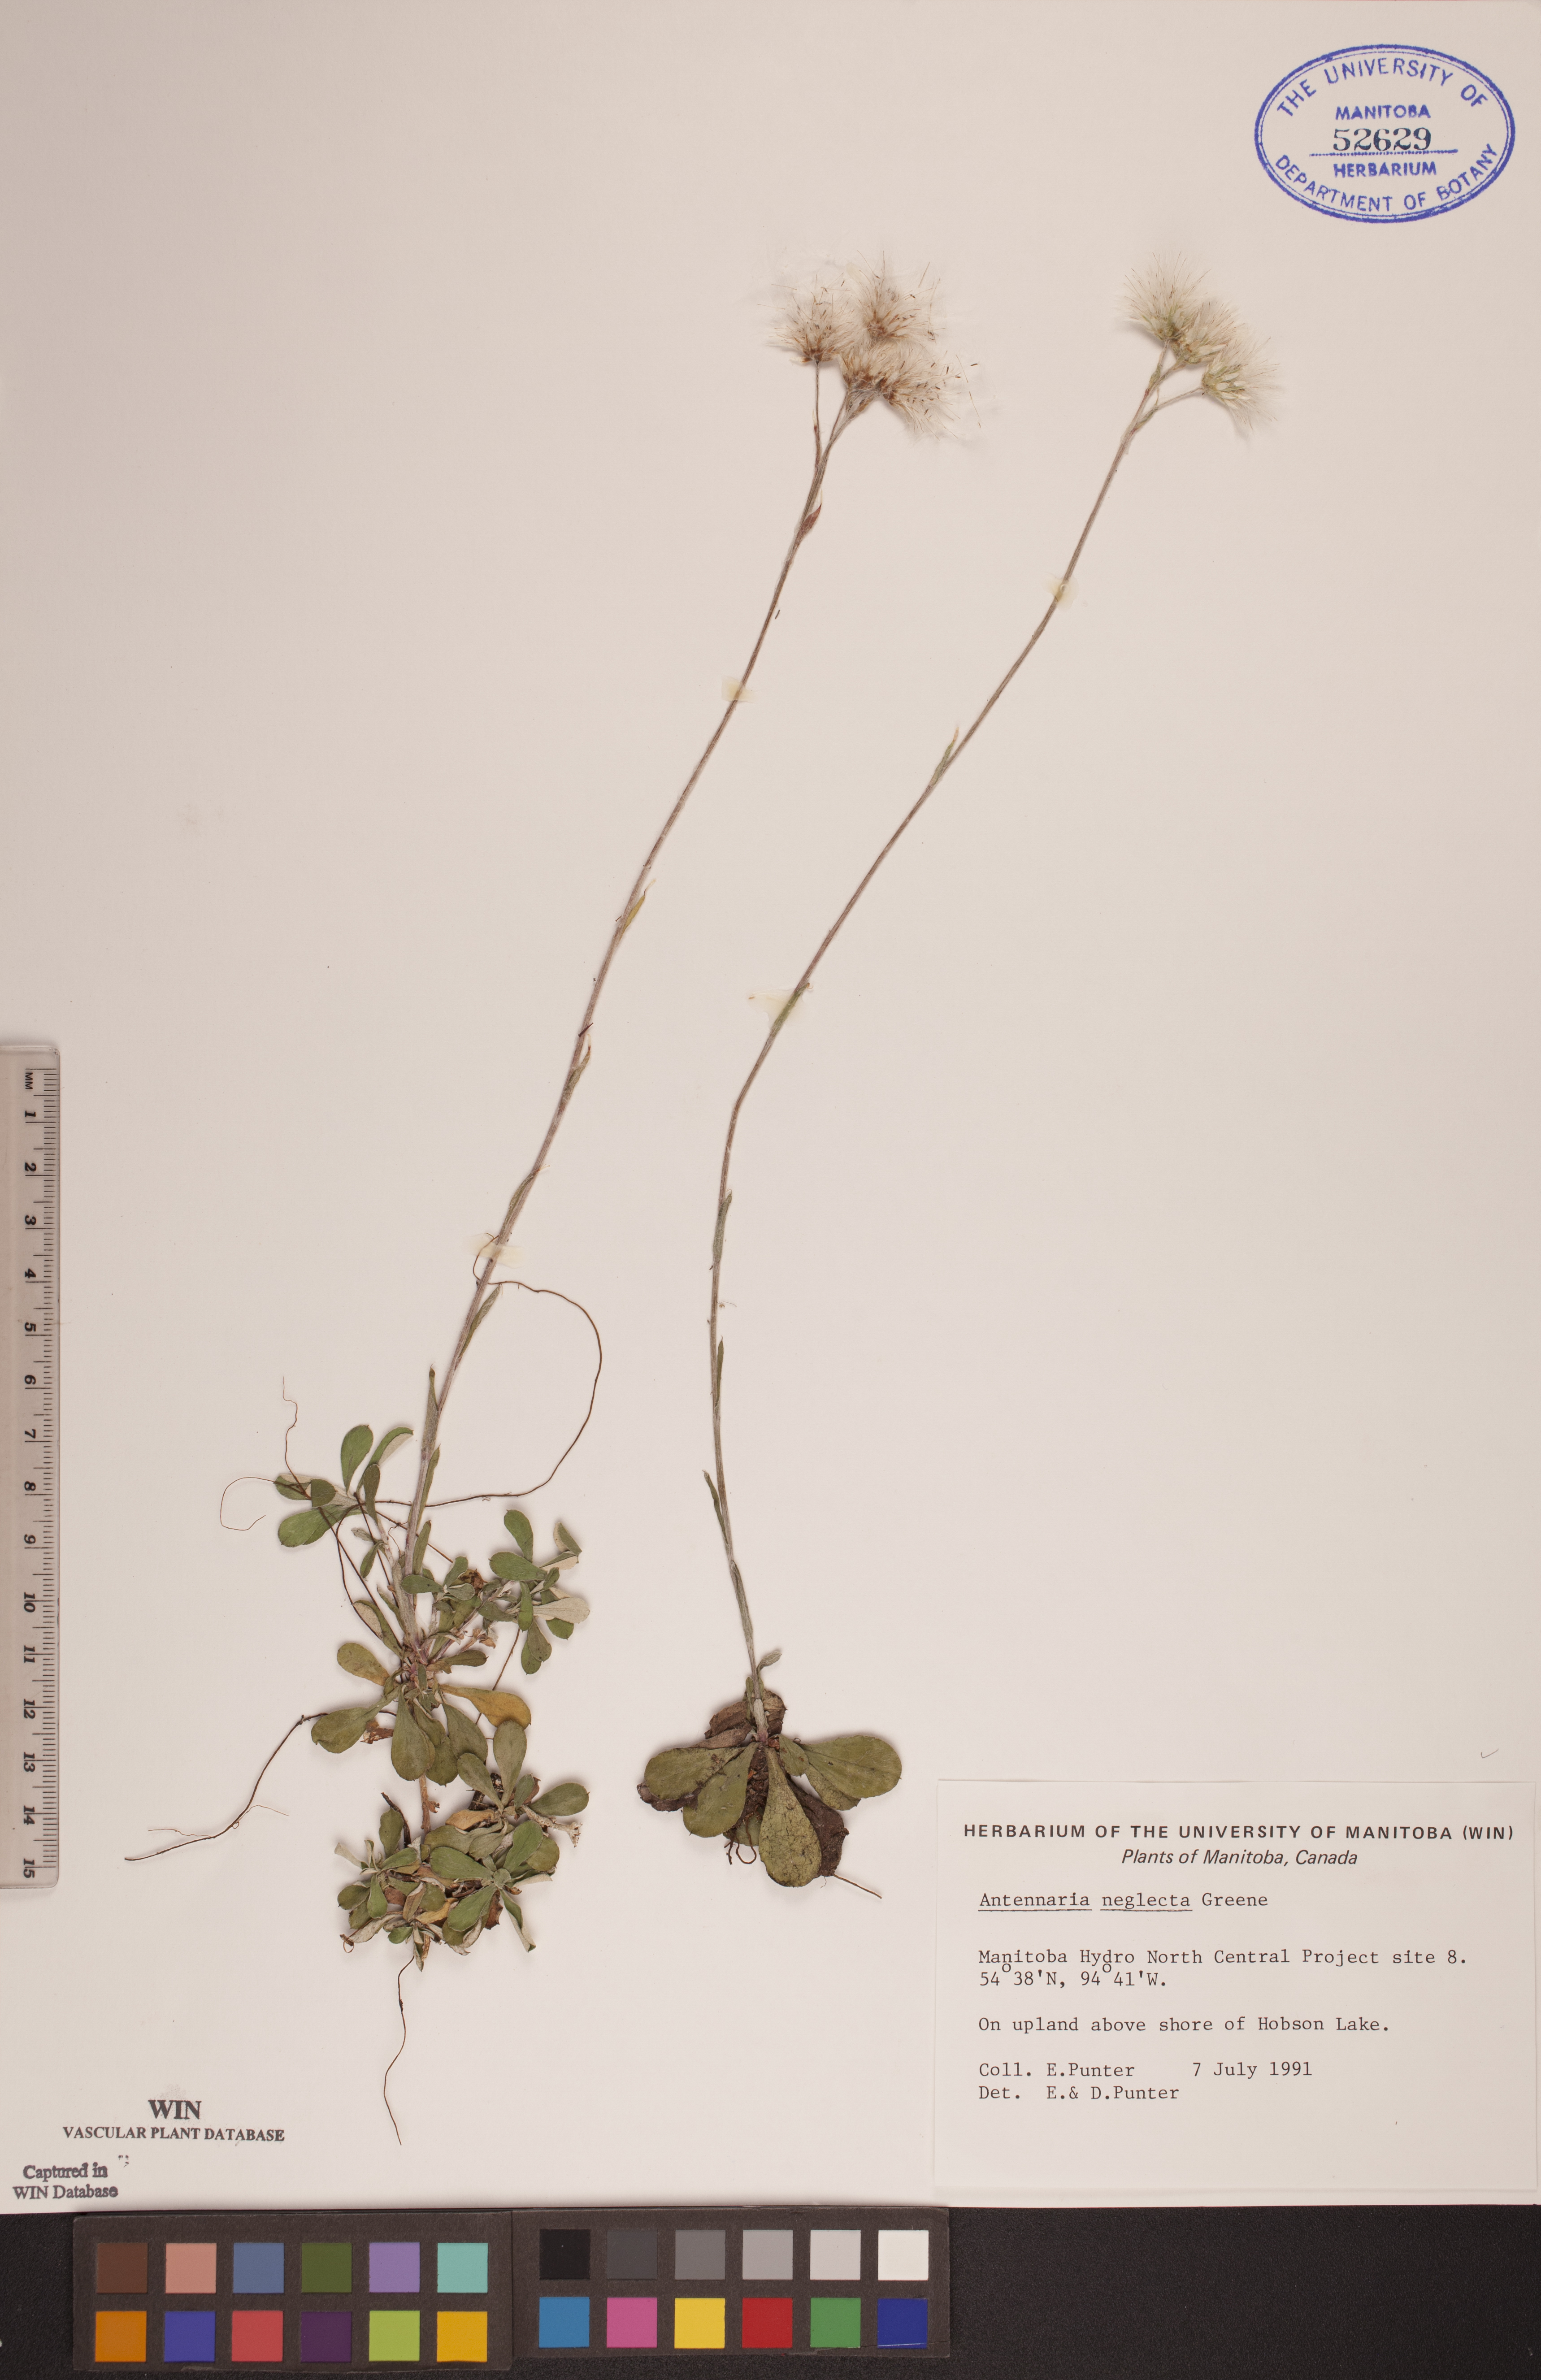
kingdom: Plantae
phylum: Tracheophyta
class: Magnoliopsida
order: Asterales
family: Asteraceae
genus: Antennaria
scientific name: Antennaria neglecta
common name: Field pussytoes
